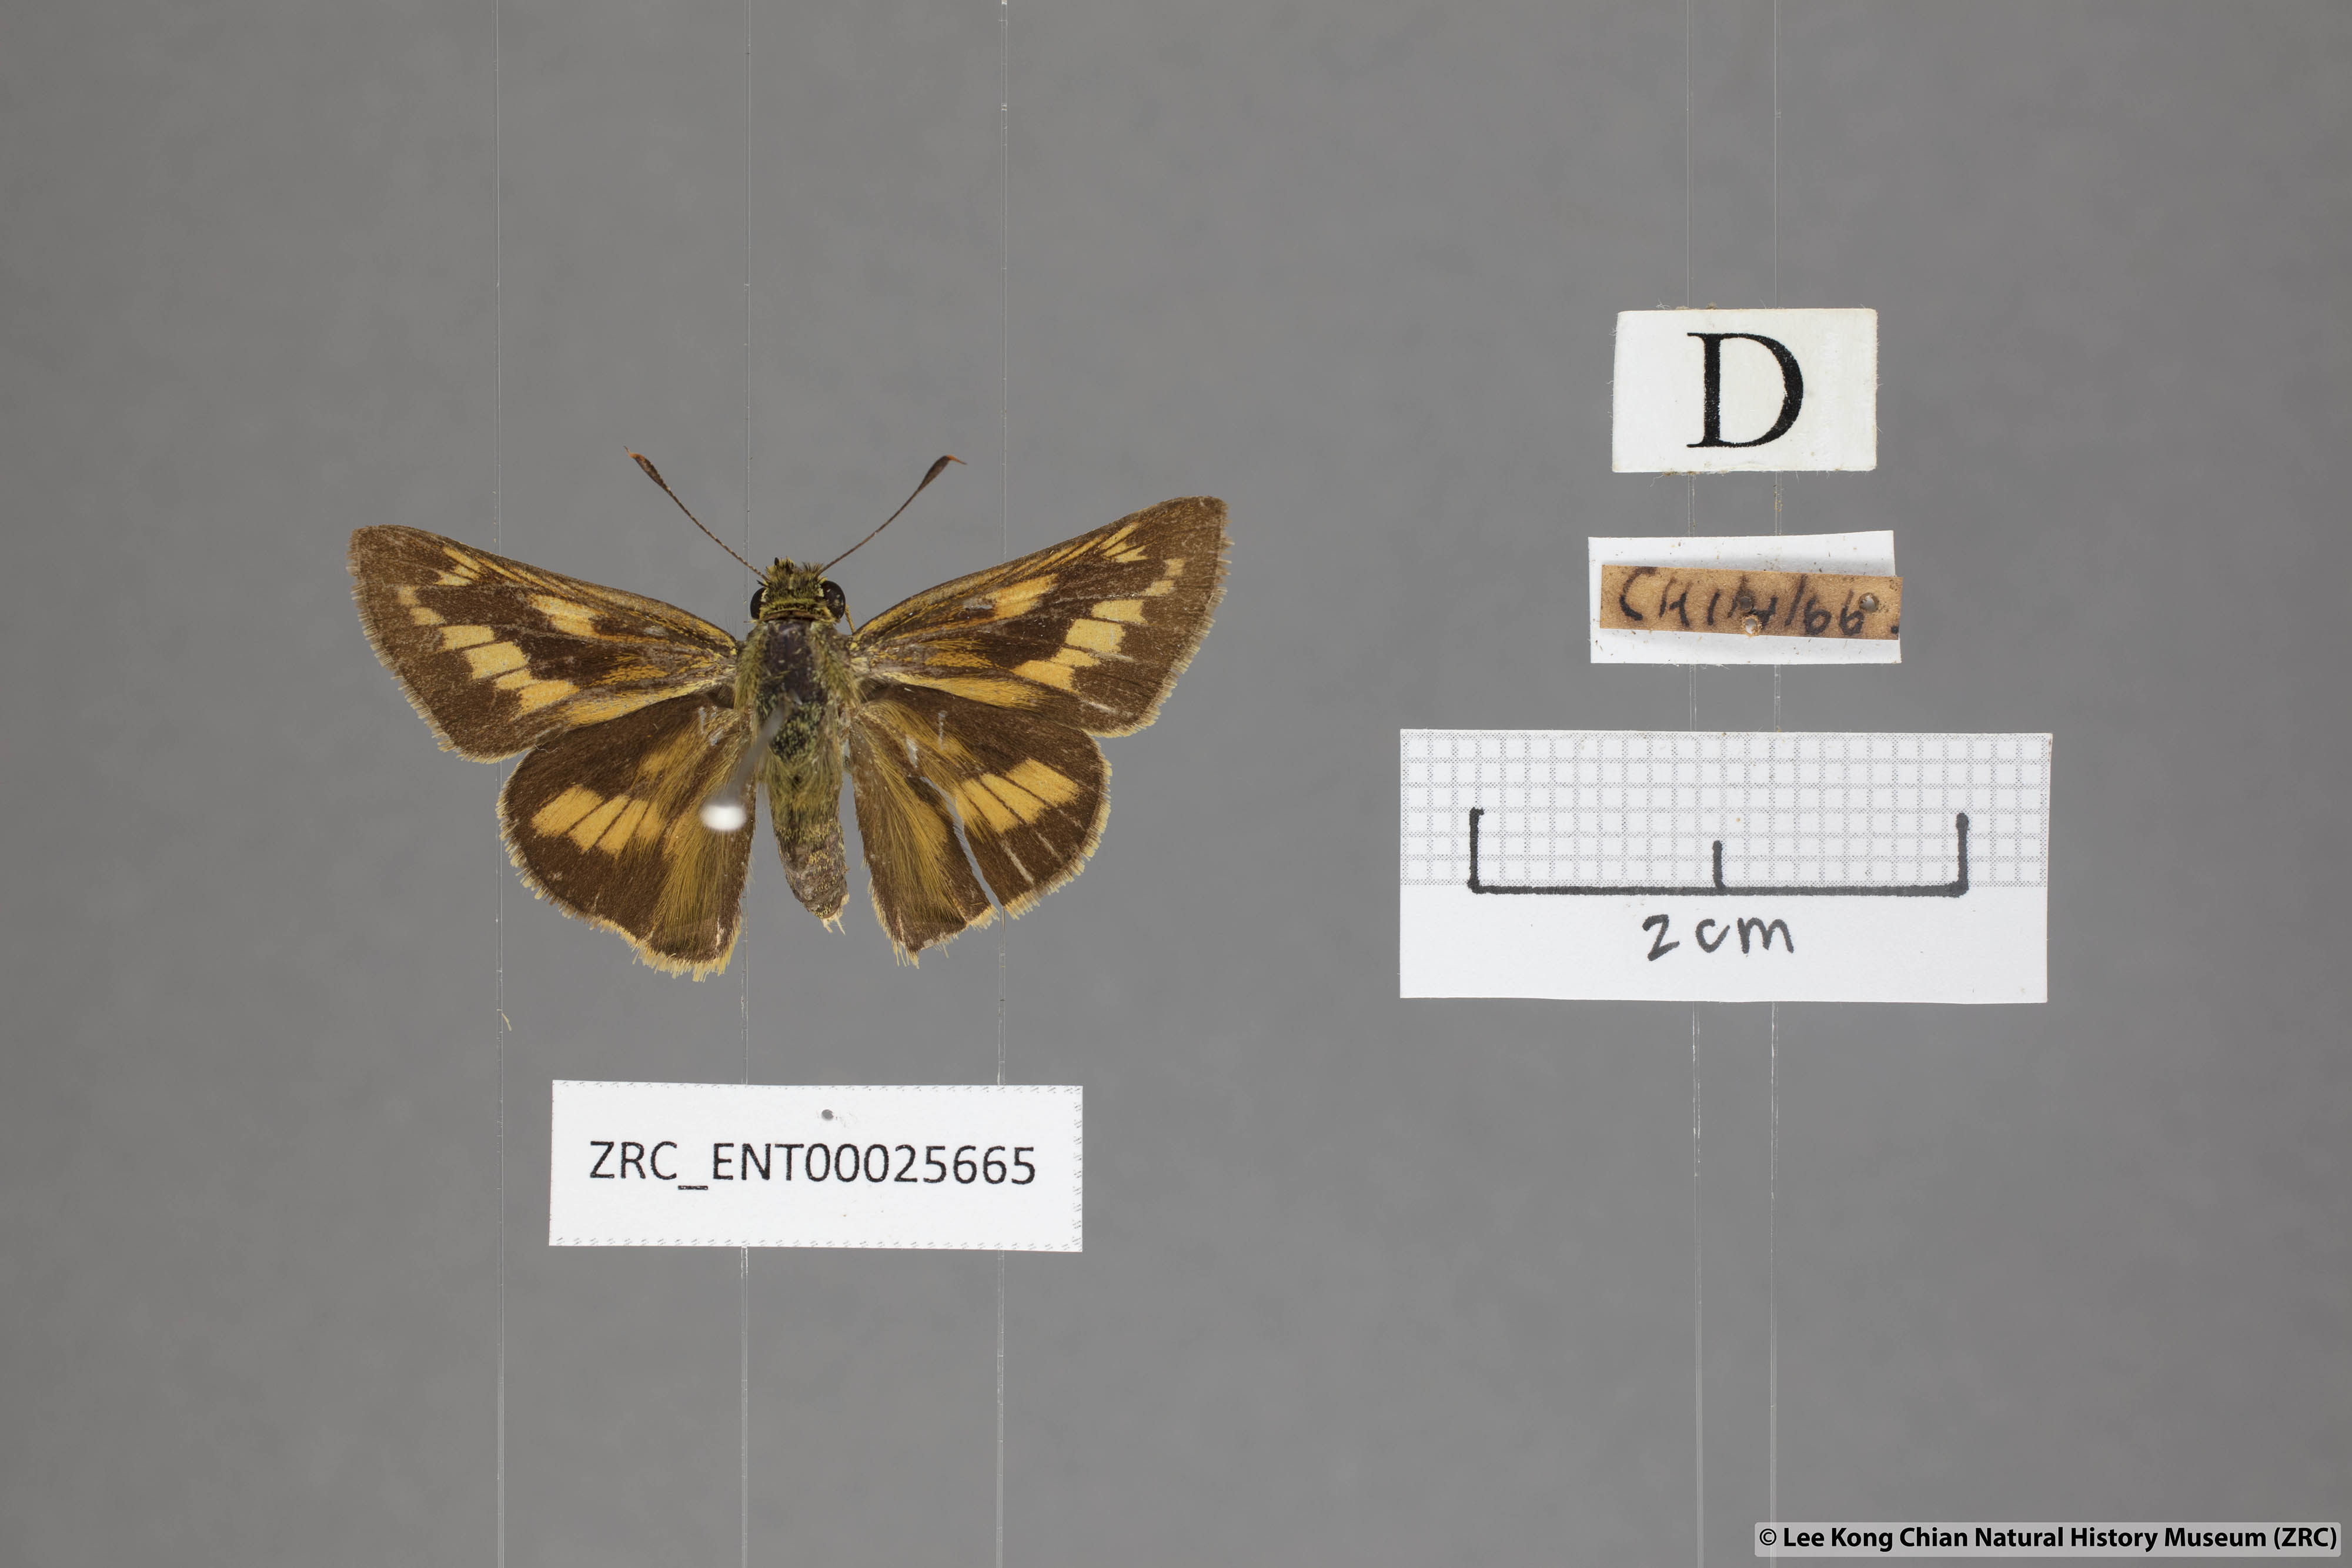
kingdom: Animalia
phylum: Arthropoda
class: Insecta
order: Lepidoptera
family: Hesperiidae
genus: Telicota
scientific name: Telicota colon
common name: Pale palm dart
